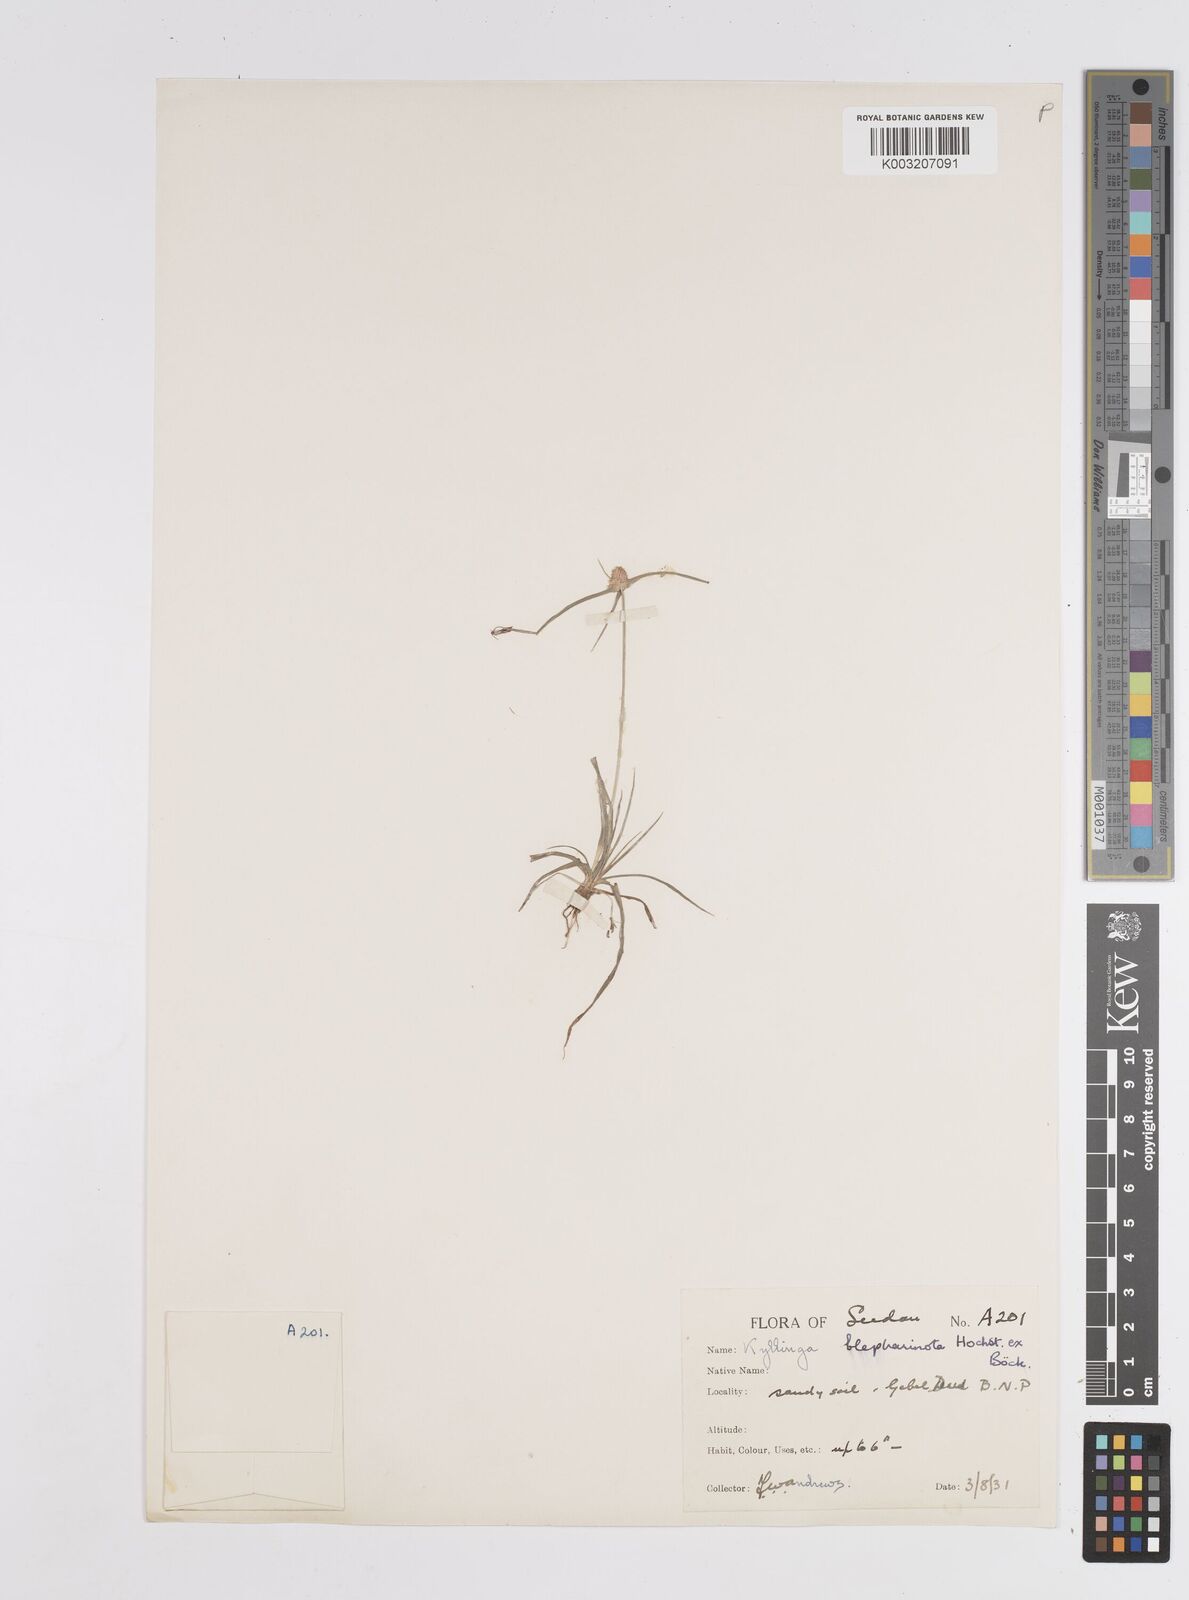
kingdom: Plantae
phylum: Tracheophyta
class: Liliopsida
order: Poales
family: Cyperaceae
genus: Cyperus
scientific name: Cyperus
